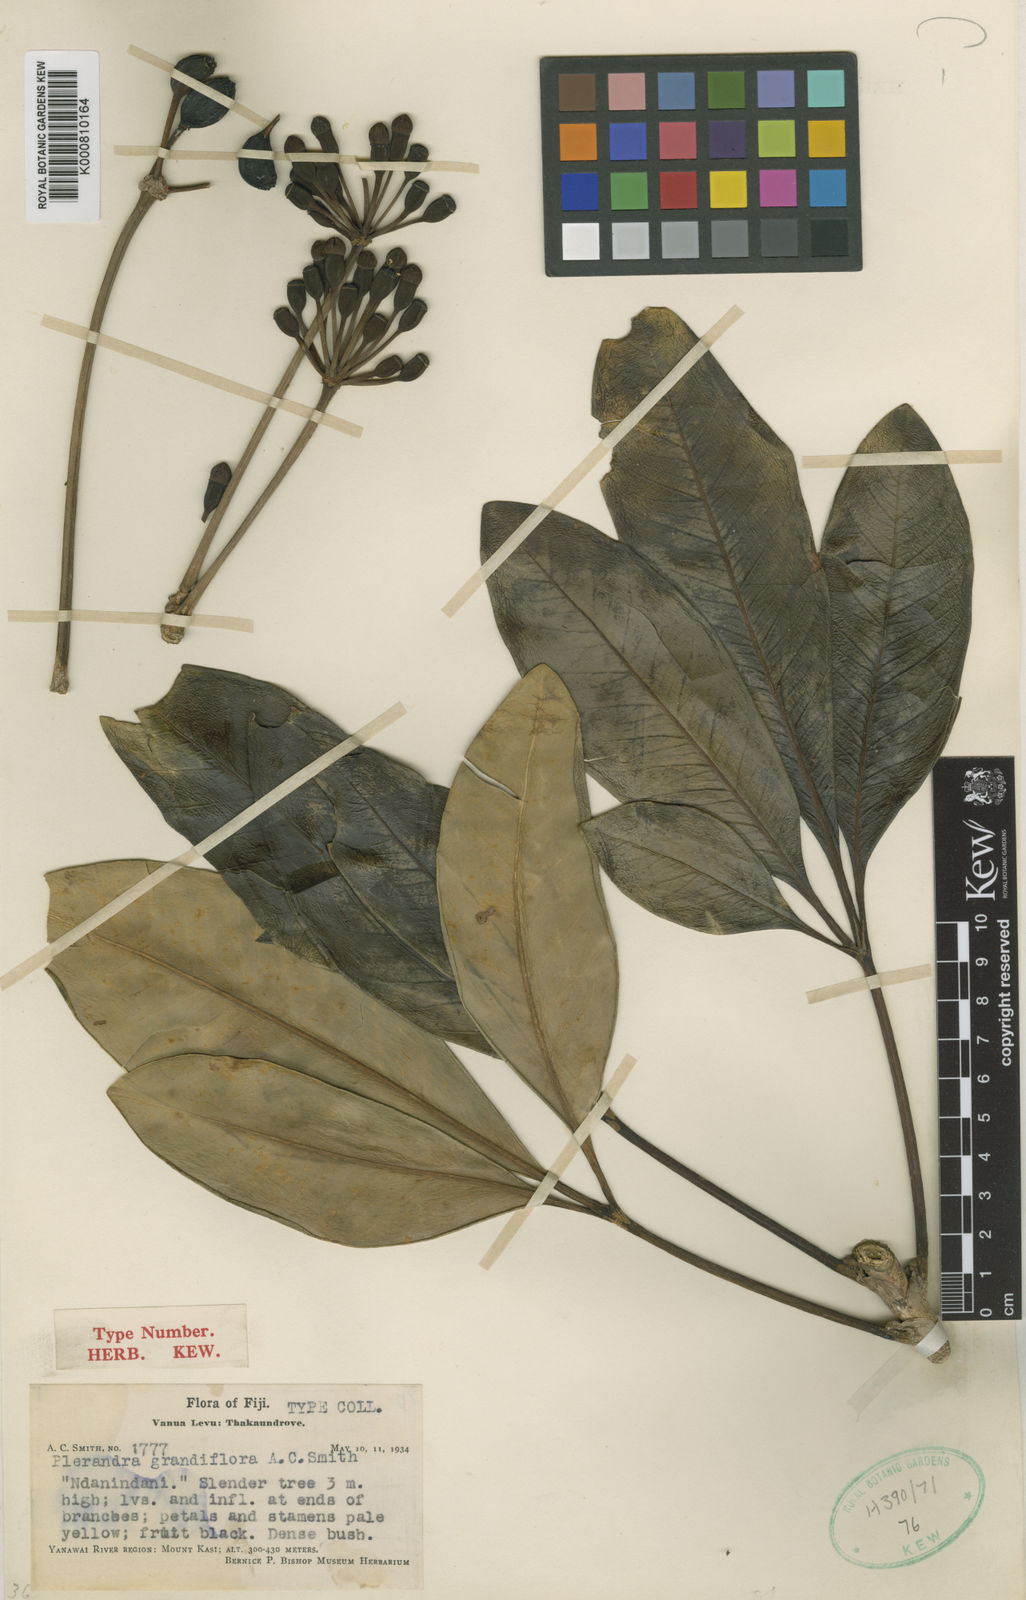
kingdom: Plantae
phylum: Tracheophyta
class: Magnoliopsida
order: Apiales
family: Araliaceae
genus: Plerandra
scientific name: Plerandra grandiflora
